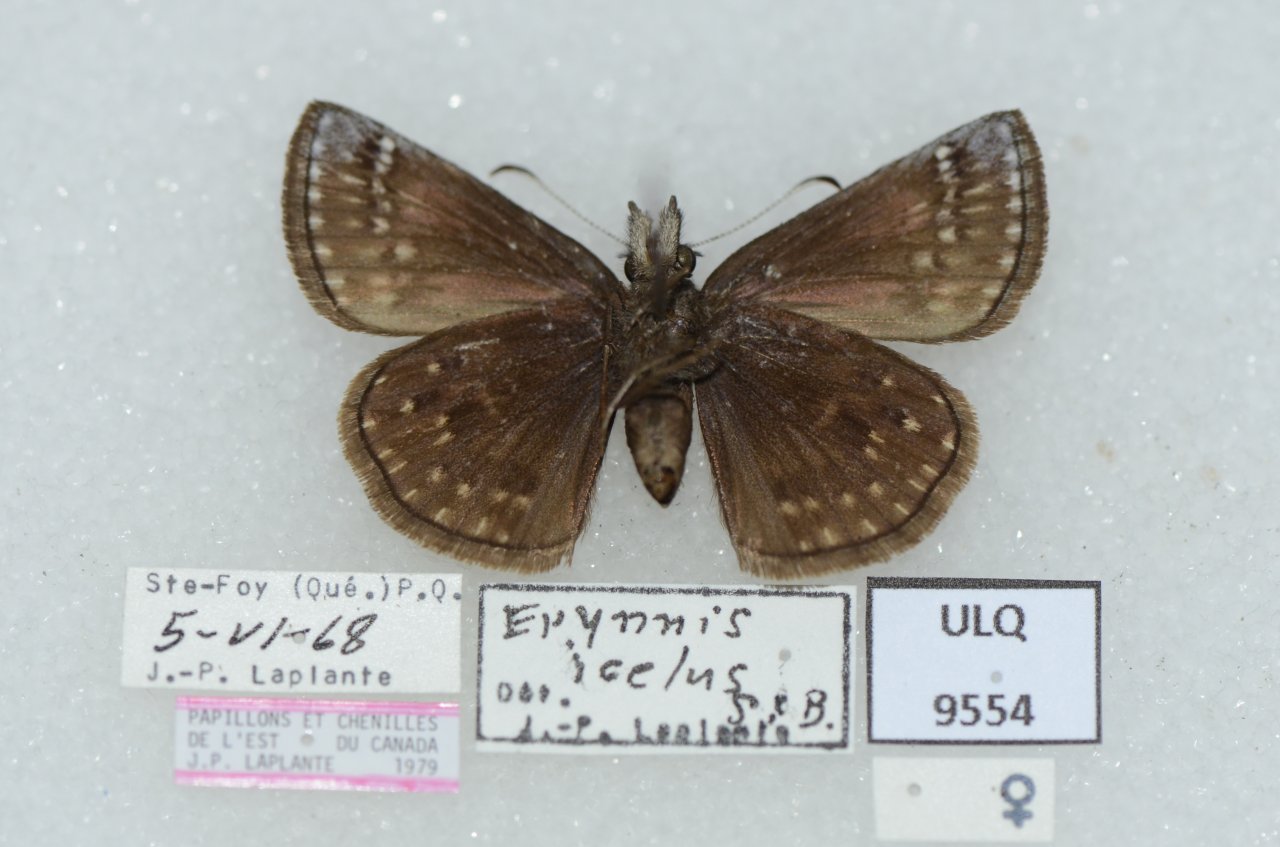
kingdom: Animalia
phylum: Arthropoda
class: Insecta
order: Lepidoptera
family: Hesperiidae
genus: Erynnis
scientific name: Erynnis icelus
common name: Dreamy Duskywing
